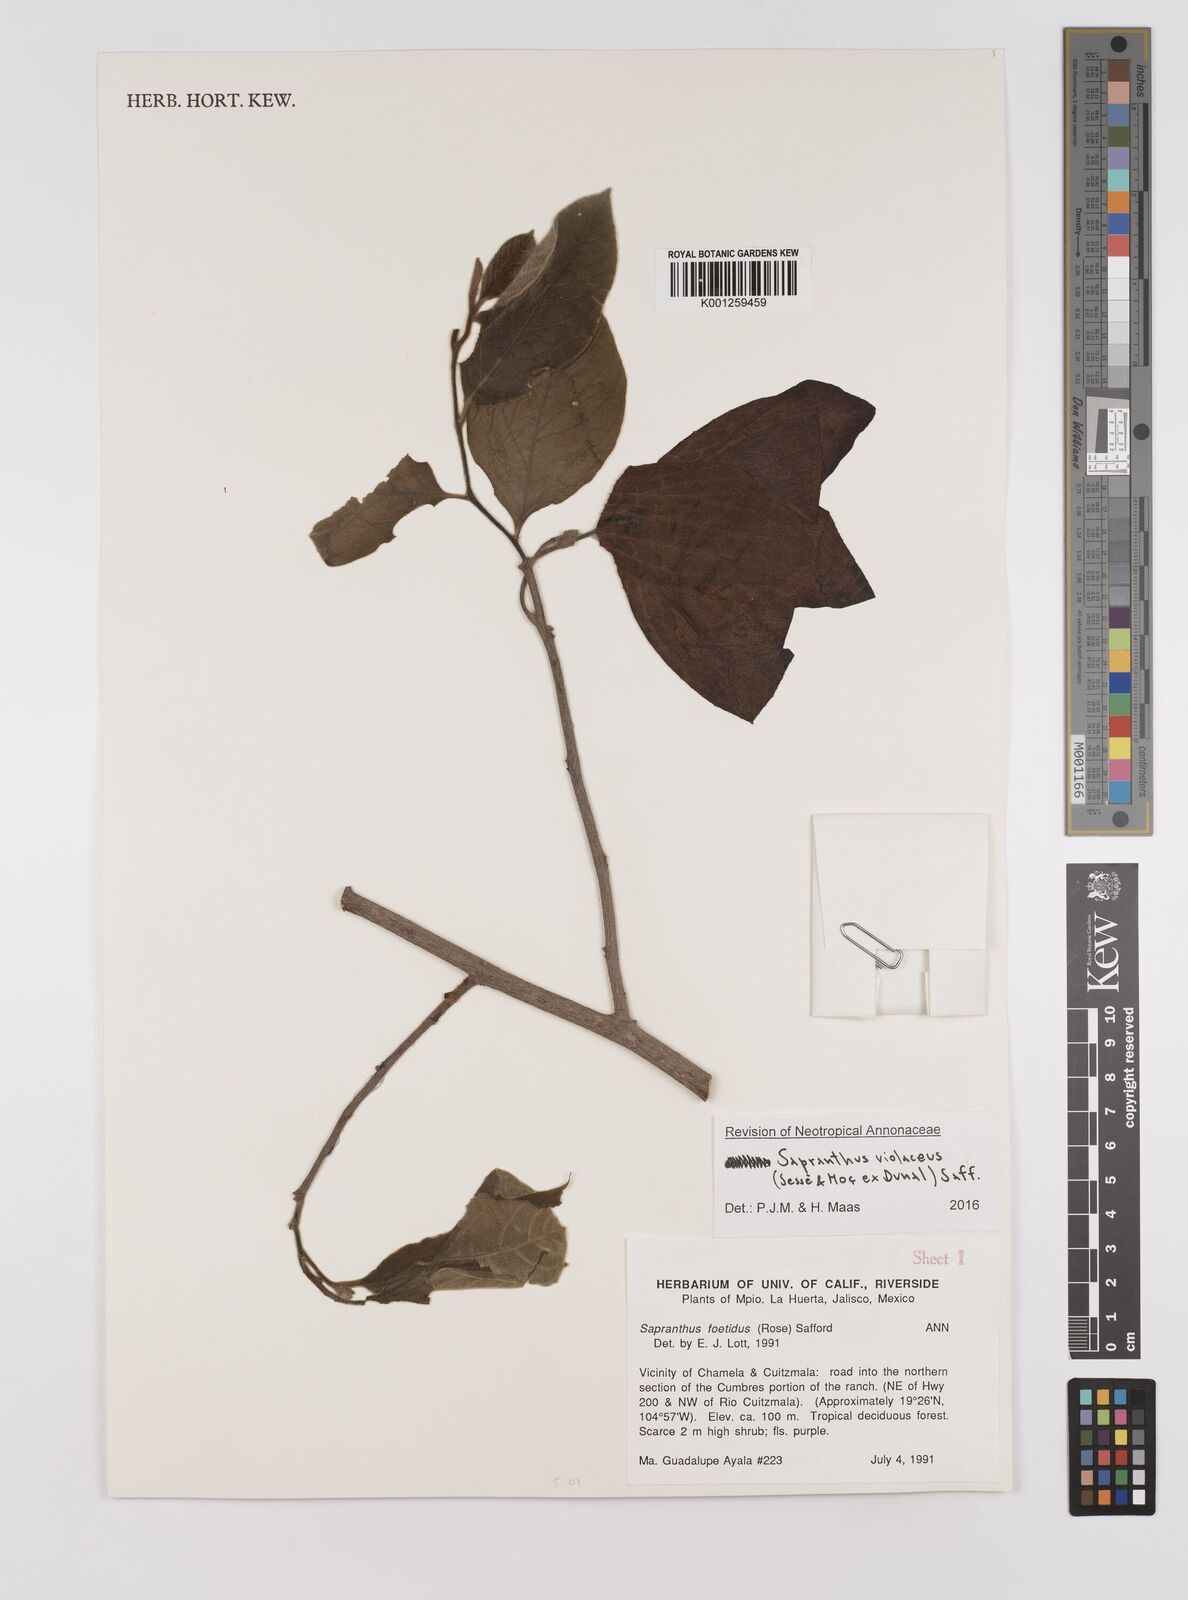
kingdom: Plantae
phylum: Tracheophyta
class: Magnoliopsida
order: Magnoliales
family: Annonaceae
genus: Sapranthus
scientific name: Sapranthus
